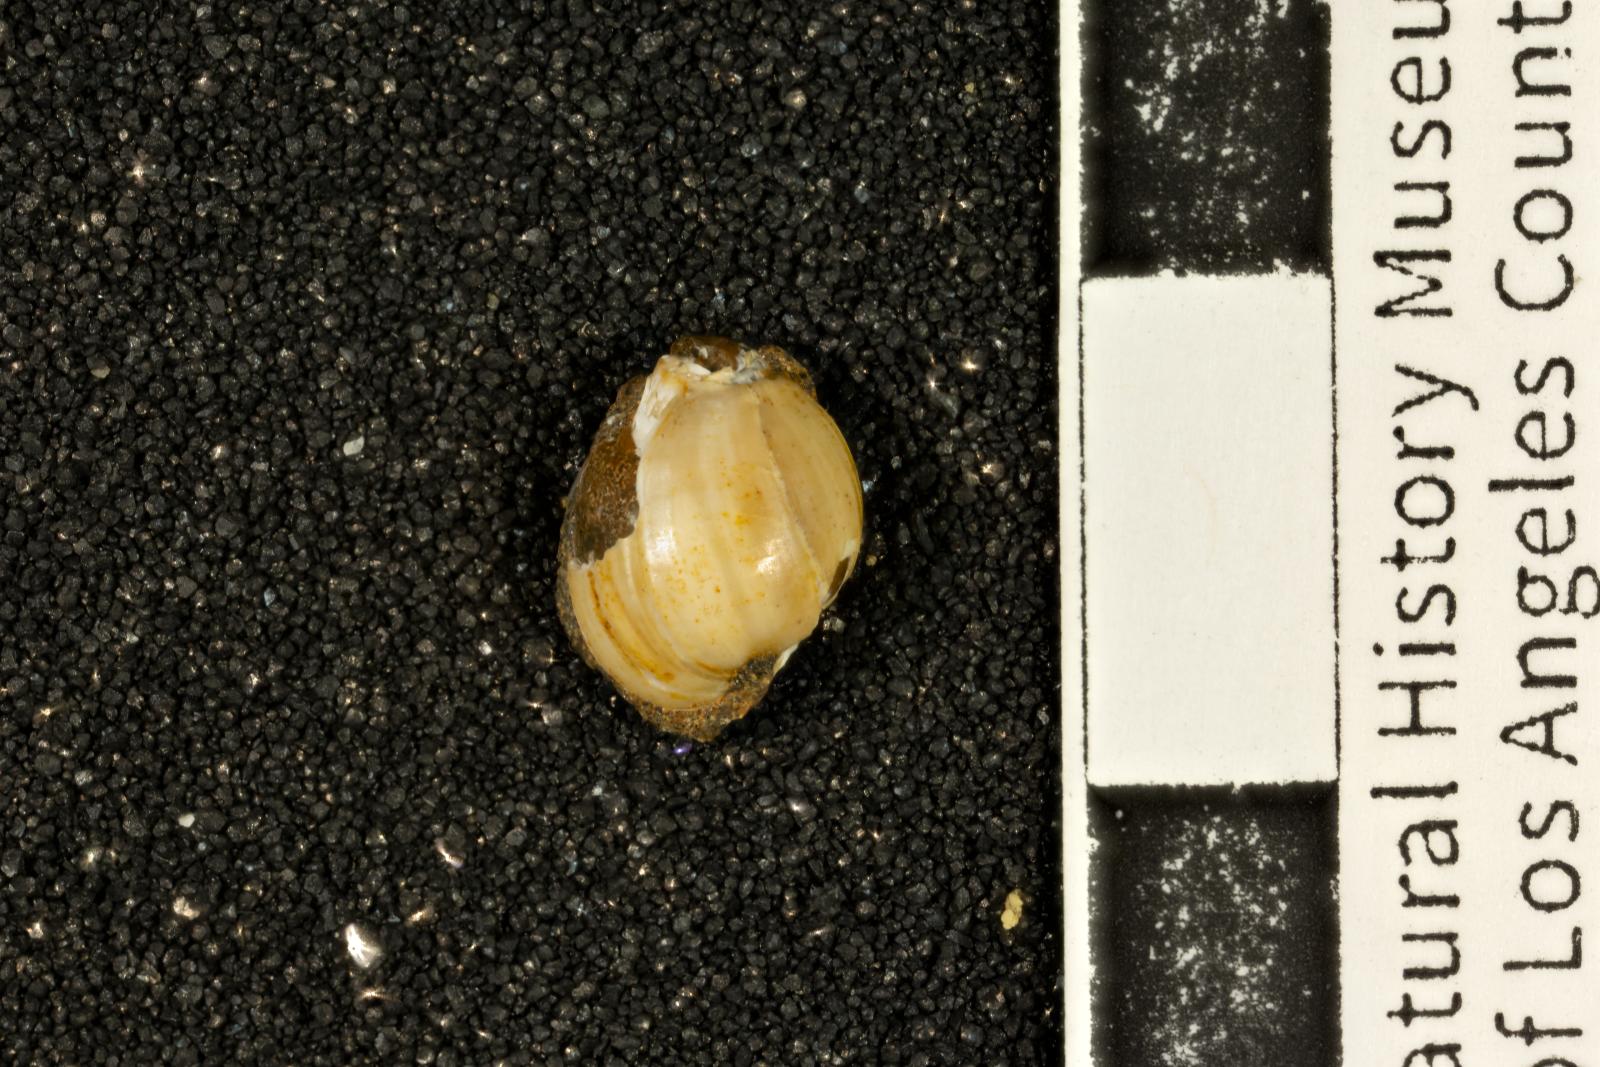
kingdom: Animalia
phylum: Mollusca
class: Gastropoda
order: Cephalaspidea
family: Ringiculidae
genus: Ringicula
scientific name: Ringicula
